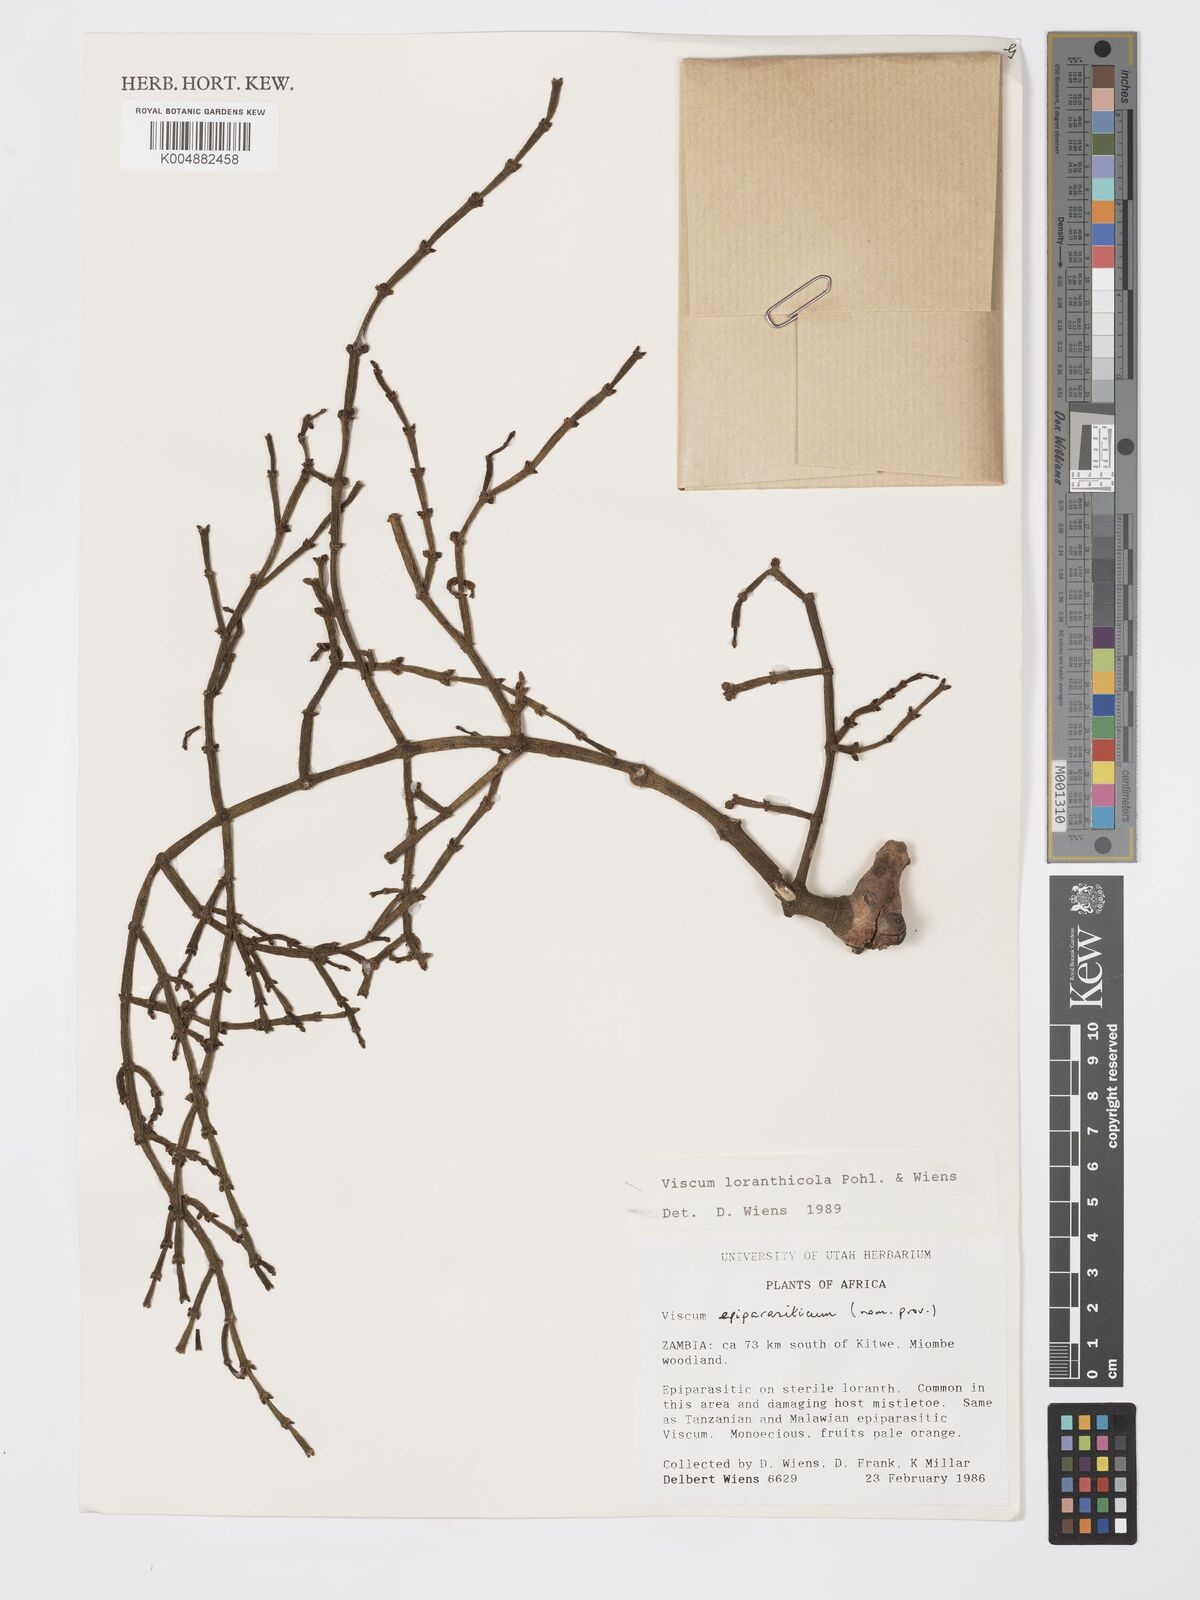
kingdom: Plantae
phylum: Tracheophyta
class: Magnoliopsida
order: Santalales
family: Viscaceae
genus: Viscum
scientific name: Viscum loranthicola
